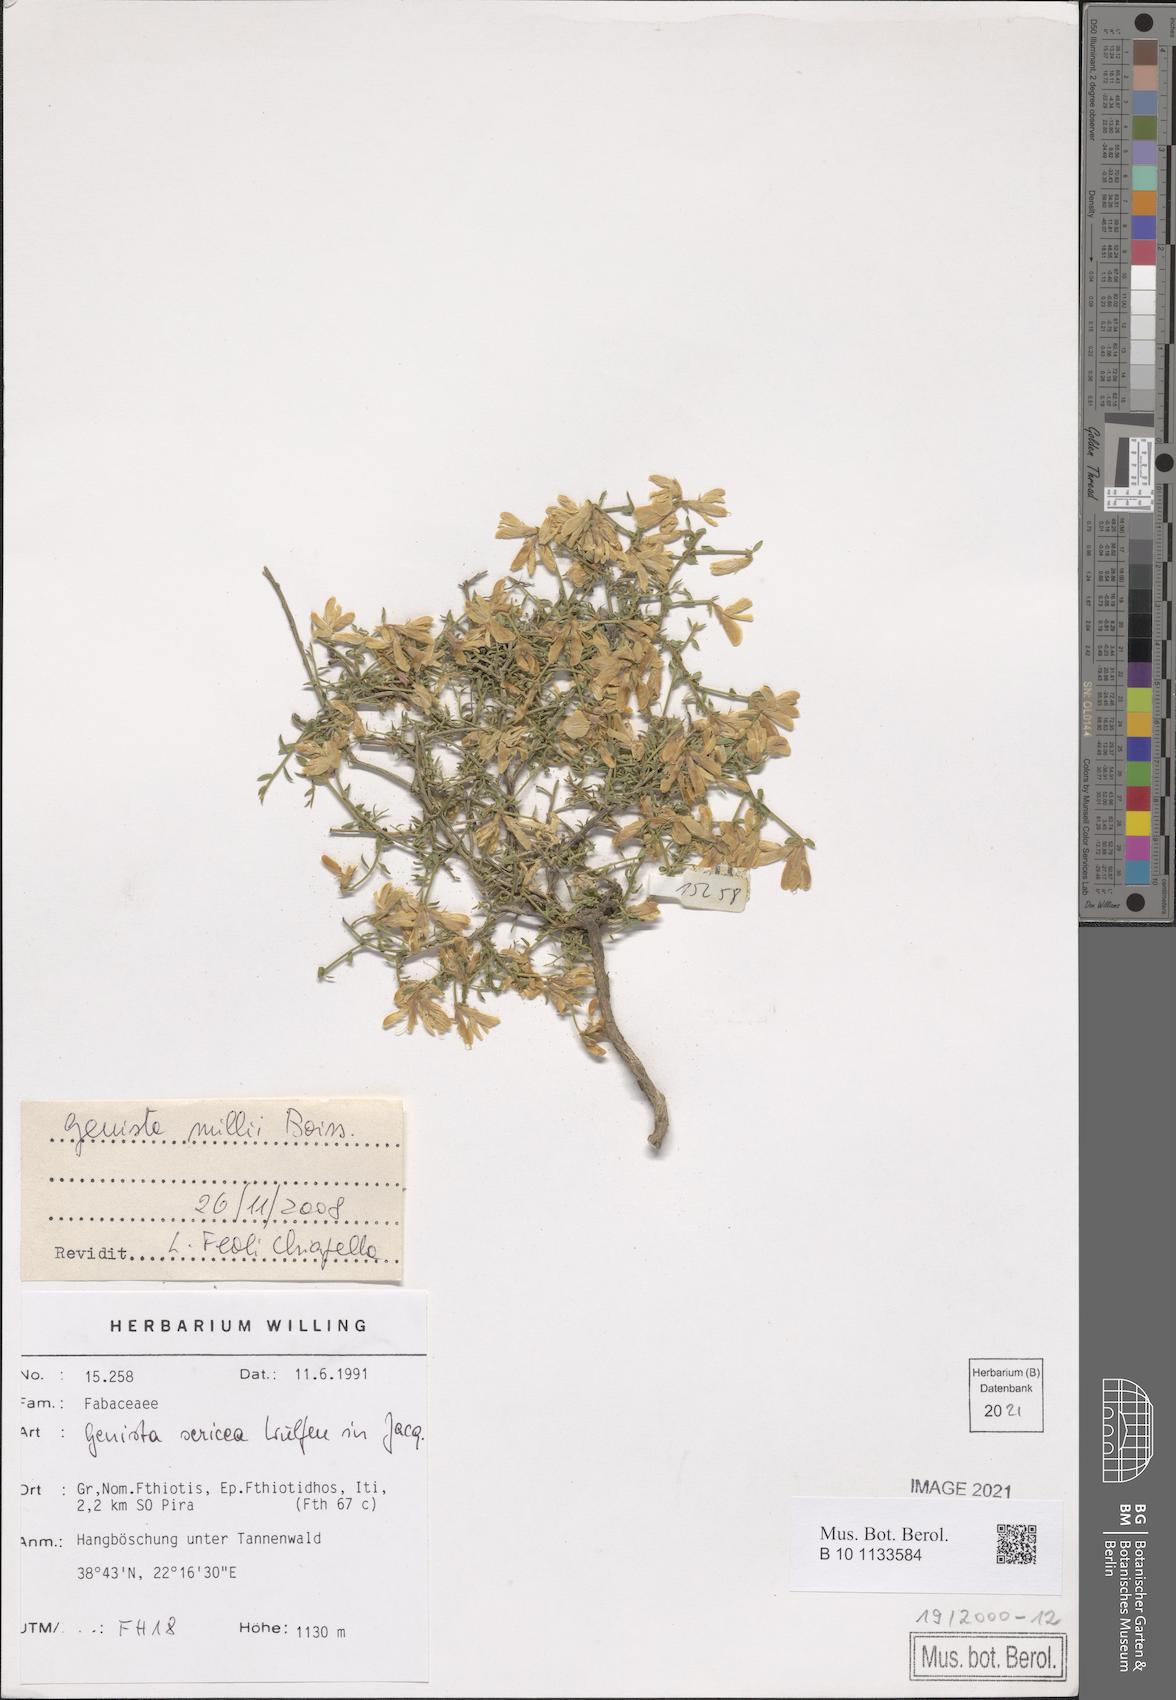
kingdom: Plantae
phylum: Tracheophyta
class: Magnoliopsida
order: Fabales
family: Fabaceae
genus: Genista
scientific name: Genista millii
